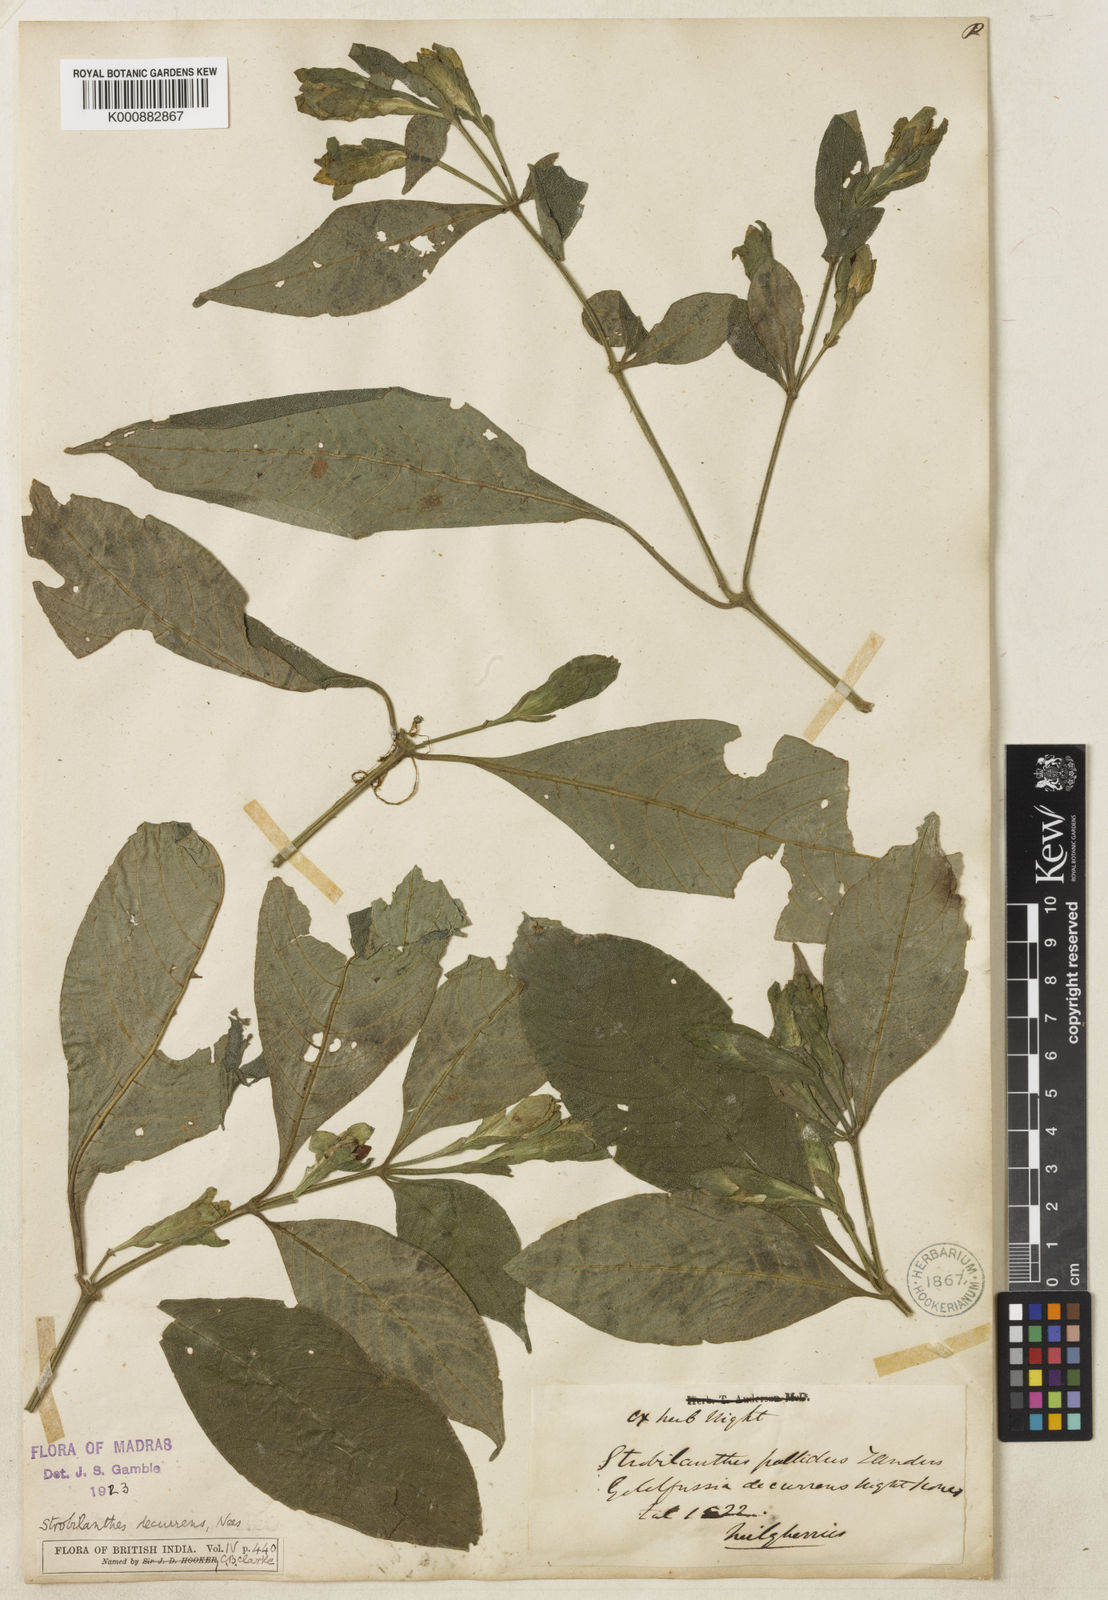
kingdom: Plantae
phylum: Tracheophyta
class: Magnoliopsida
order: Lamiales
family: Acanthaceae
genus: Strobilanthes
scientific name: Strobilanthes decurrens
